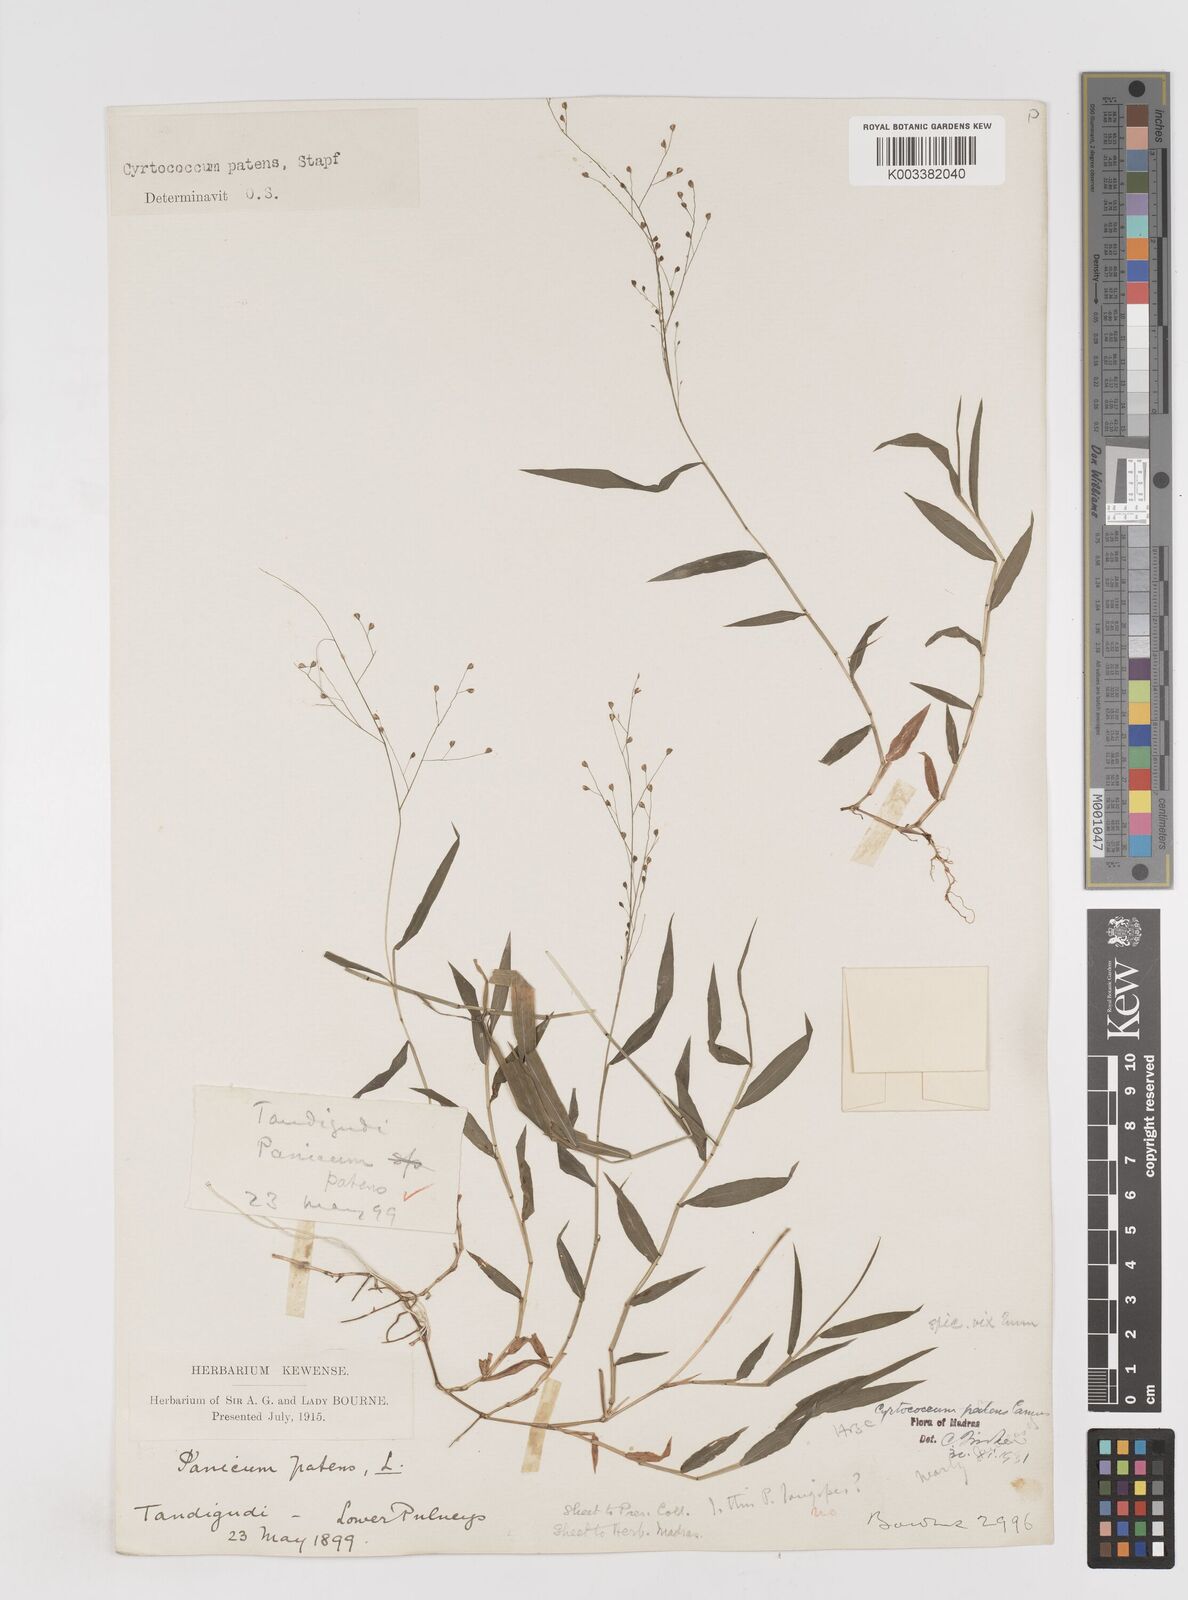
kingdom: Plantae
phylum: Tracheophyta
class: Liliopsida
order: Poales
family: Poaceae
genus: Cyrtococcum
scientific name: Cyrtococcum deccanense
